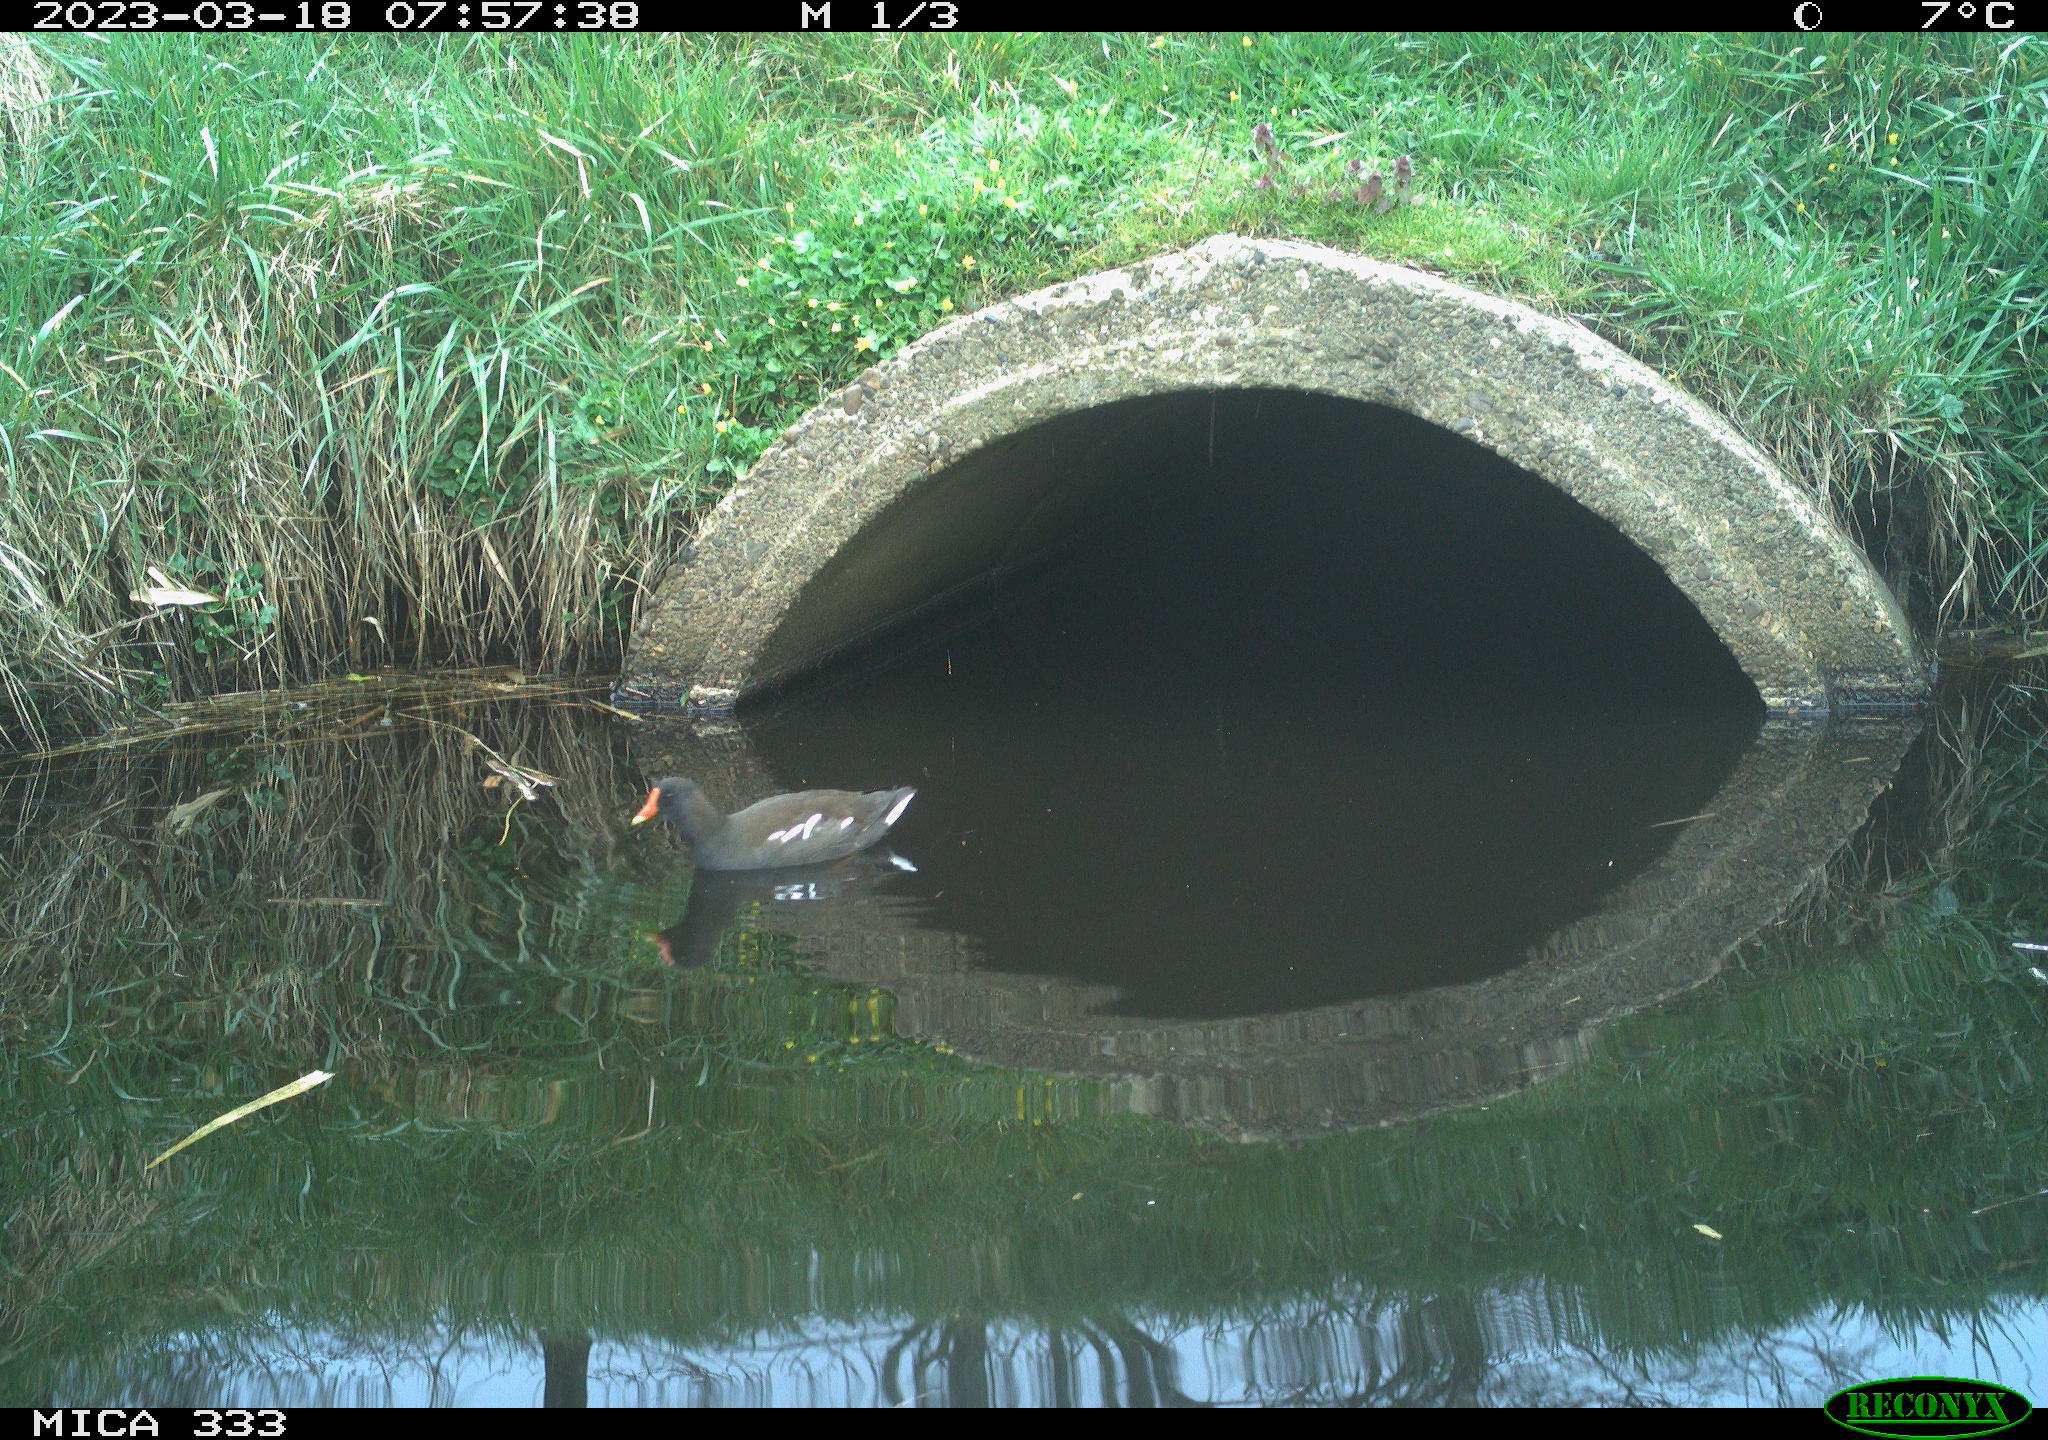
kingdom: Animalia
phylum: Chordata
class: Aves
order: Gruiformes
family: Rallidae
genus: Gallinula
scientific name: Gallinula chloropus
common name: Common moorhen
